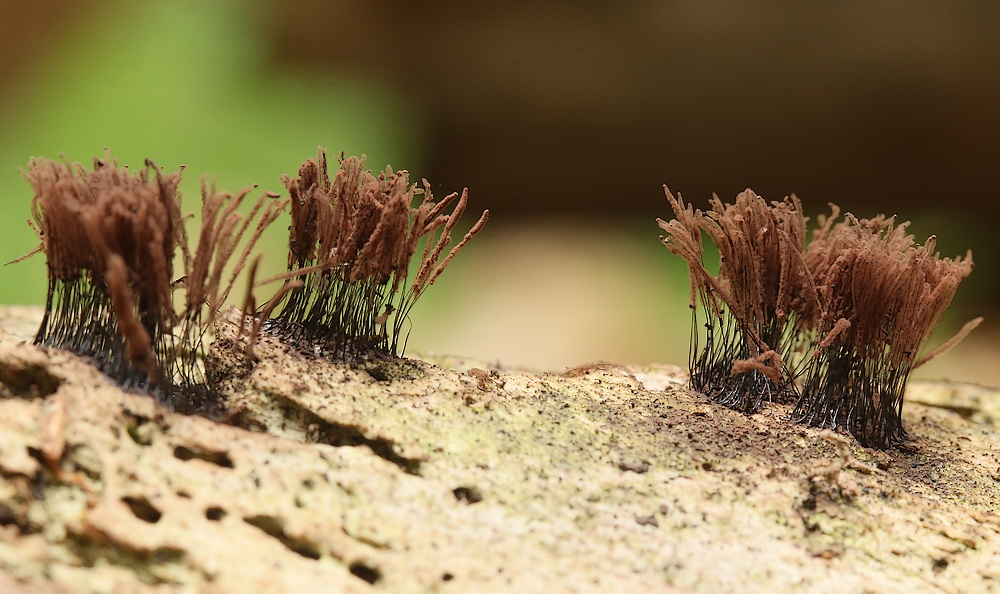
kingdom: Protozoa
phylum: Mycetozoa
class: Myxomycetes
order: Stemonitidales
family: Stemonitidaceae
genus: Stemonitis
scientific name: Stemonitis
